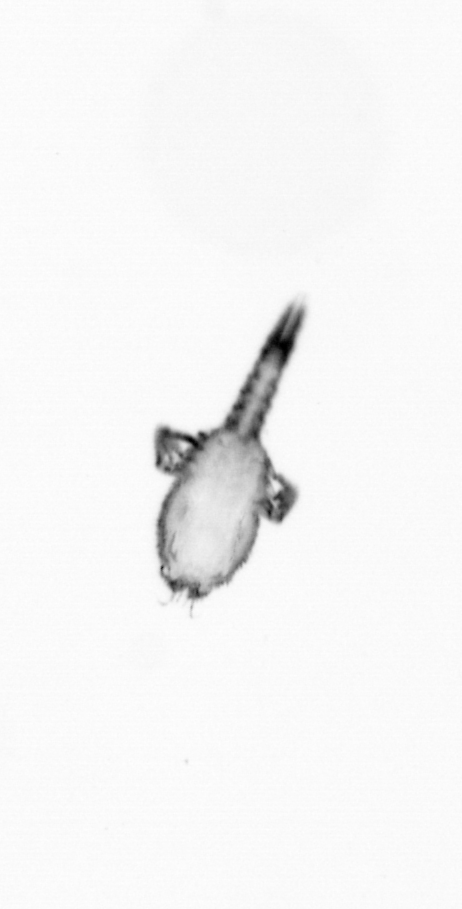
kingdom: Animalia
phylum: Arthropoda
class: Copepoda
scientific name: Copepoda
